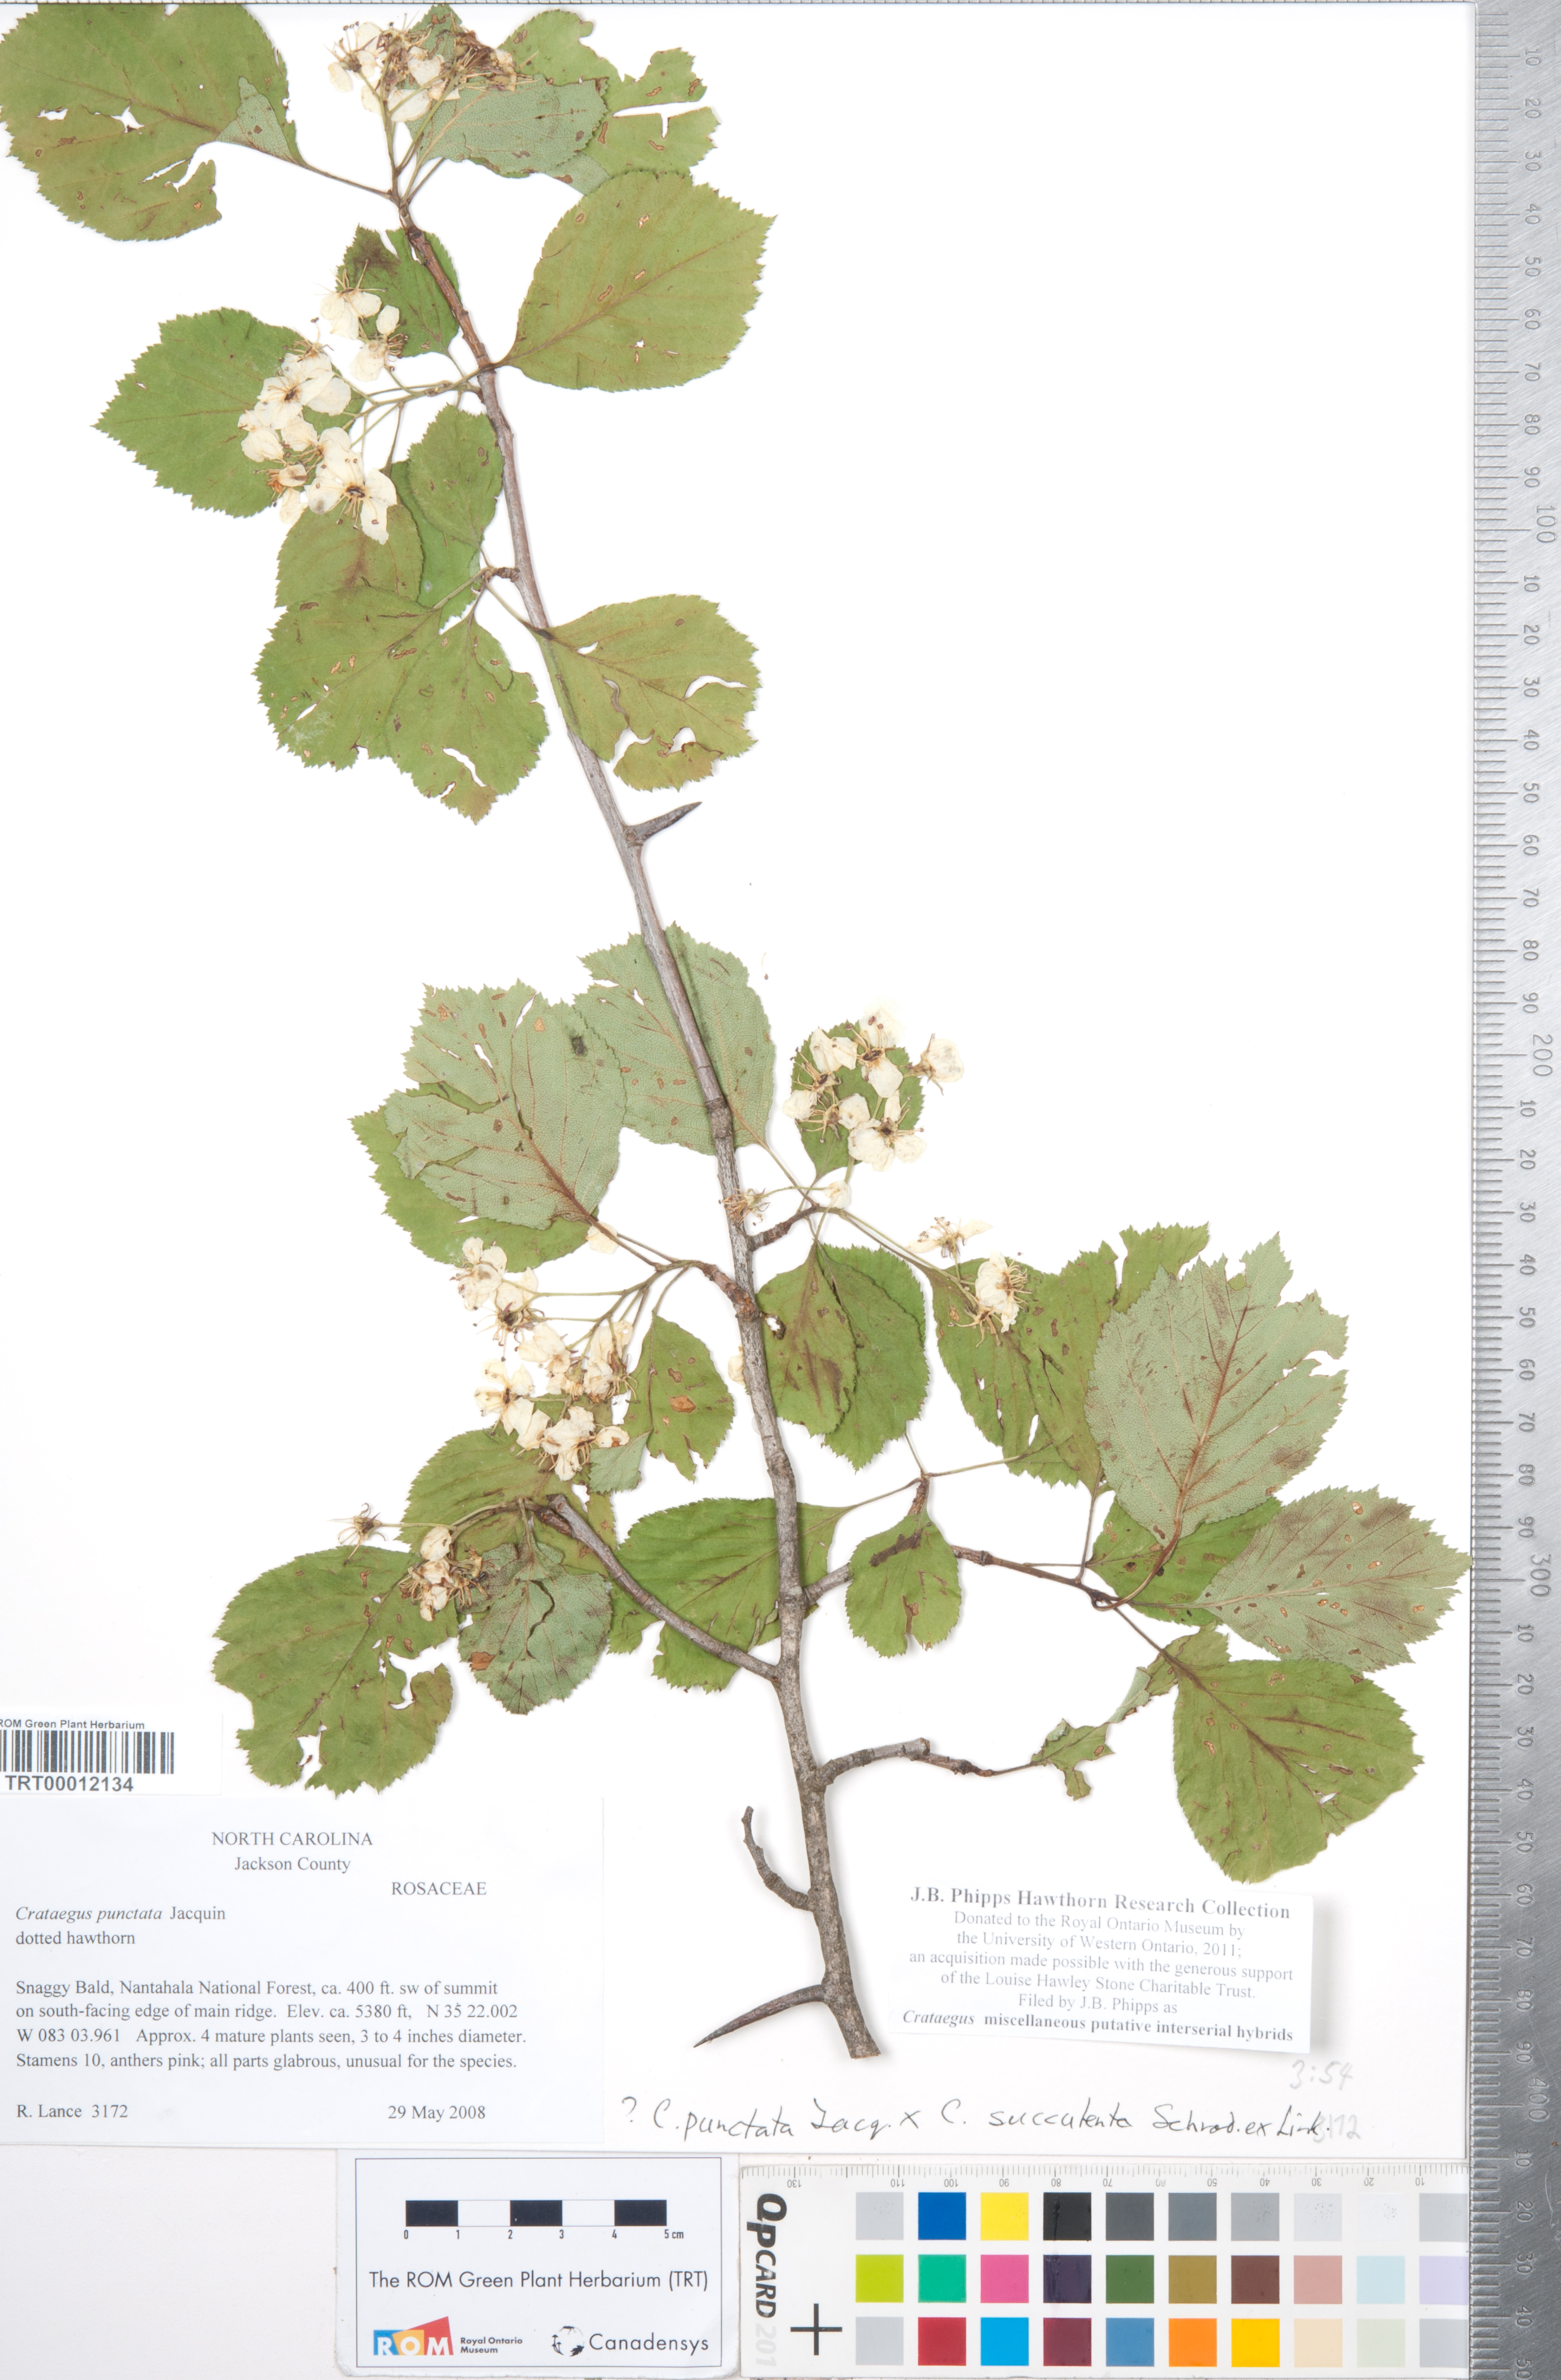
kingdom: Plantae
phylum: Tracheophyta
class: Magnoliopsida
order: Rosales
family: Rosaceae
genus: Crataegus
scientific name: Crataegus
